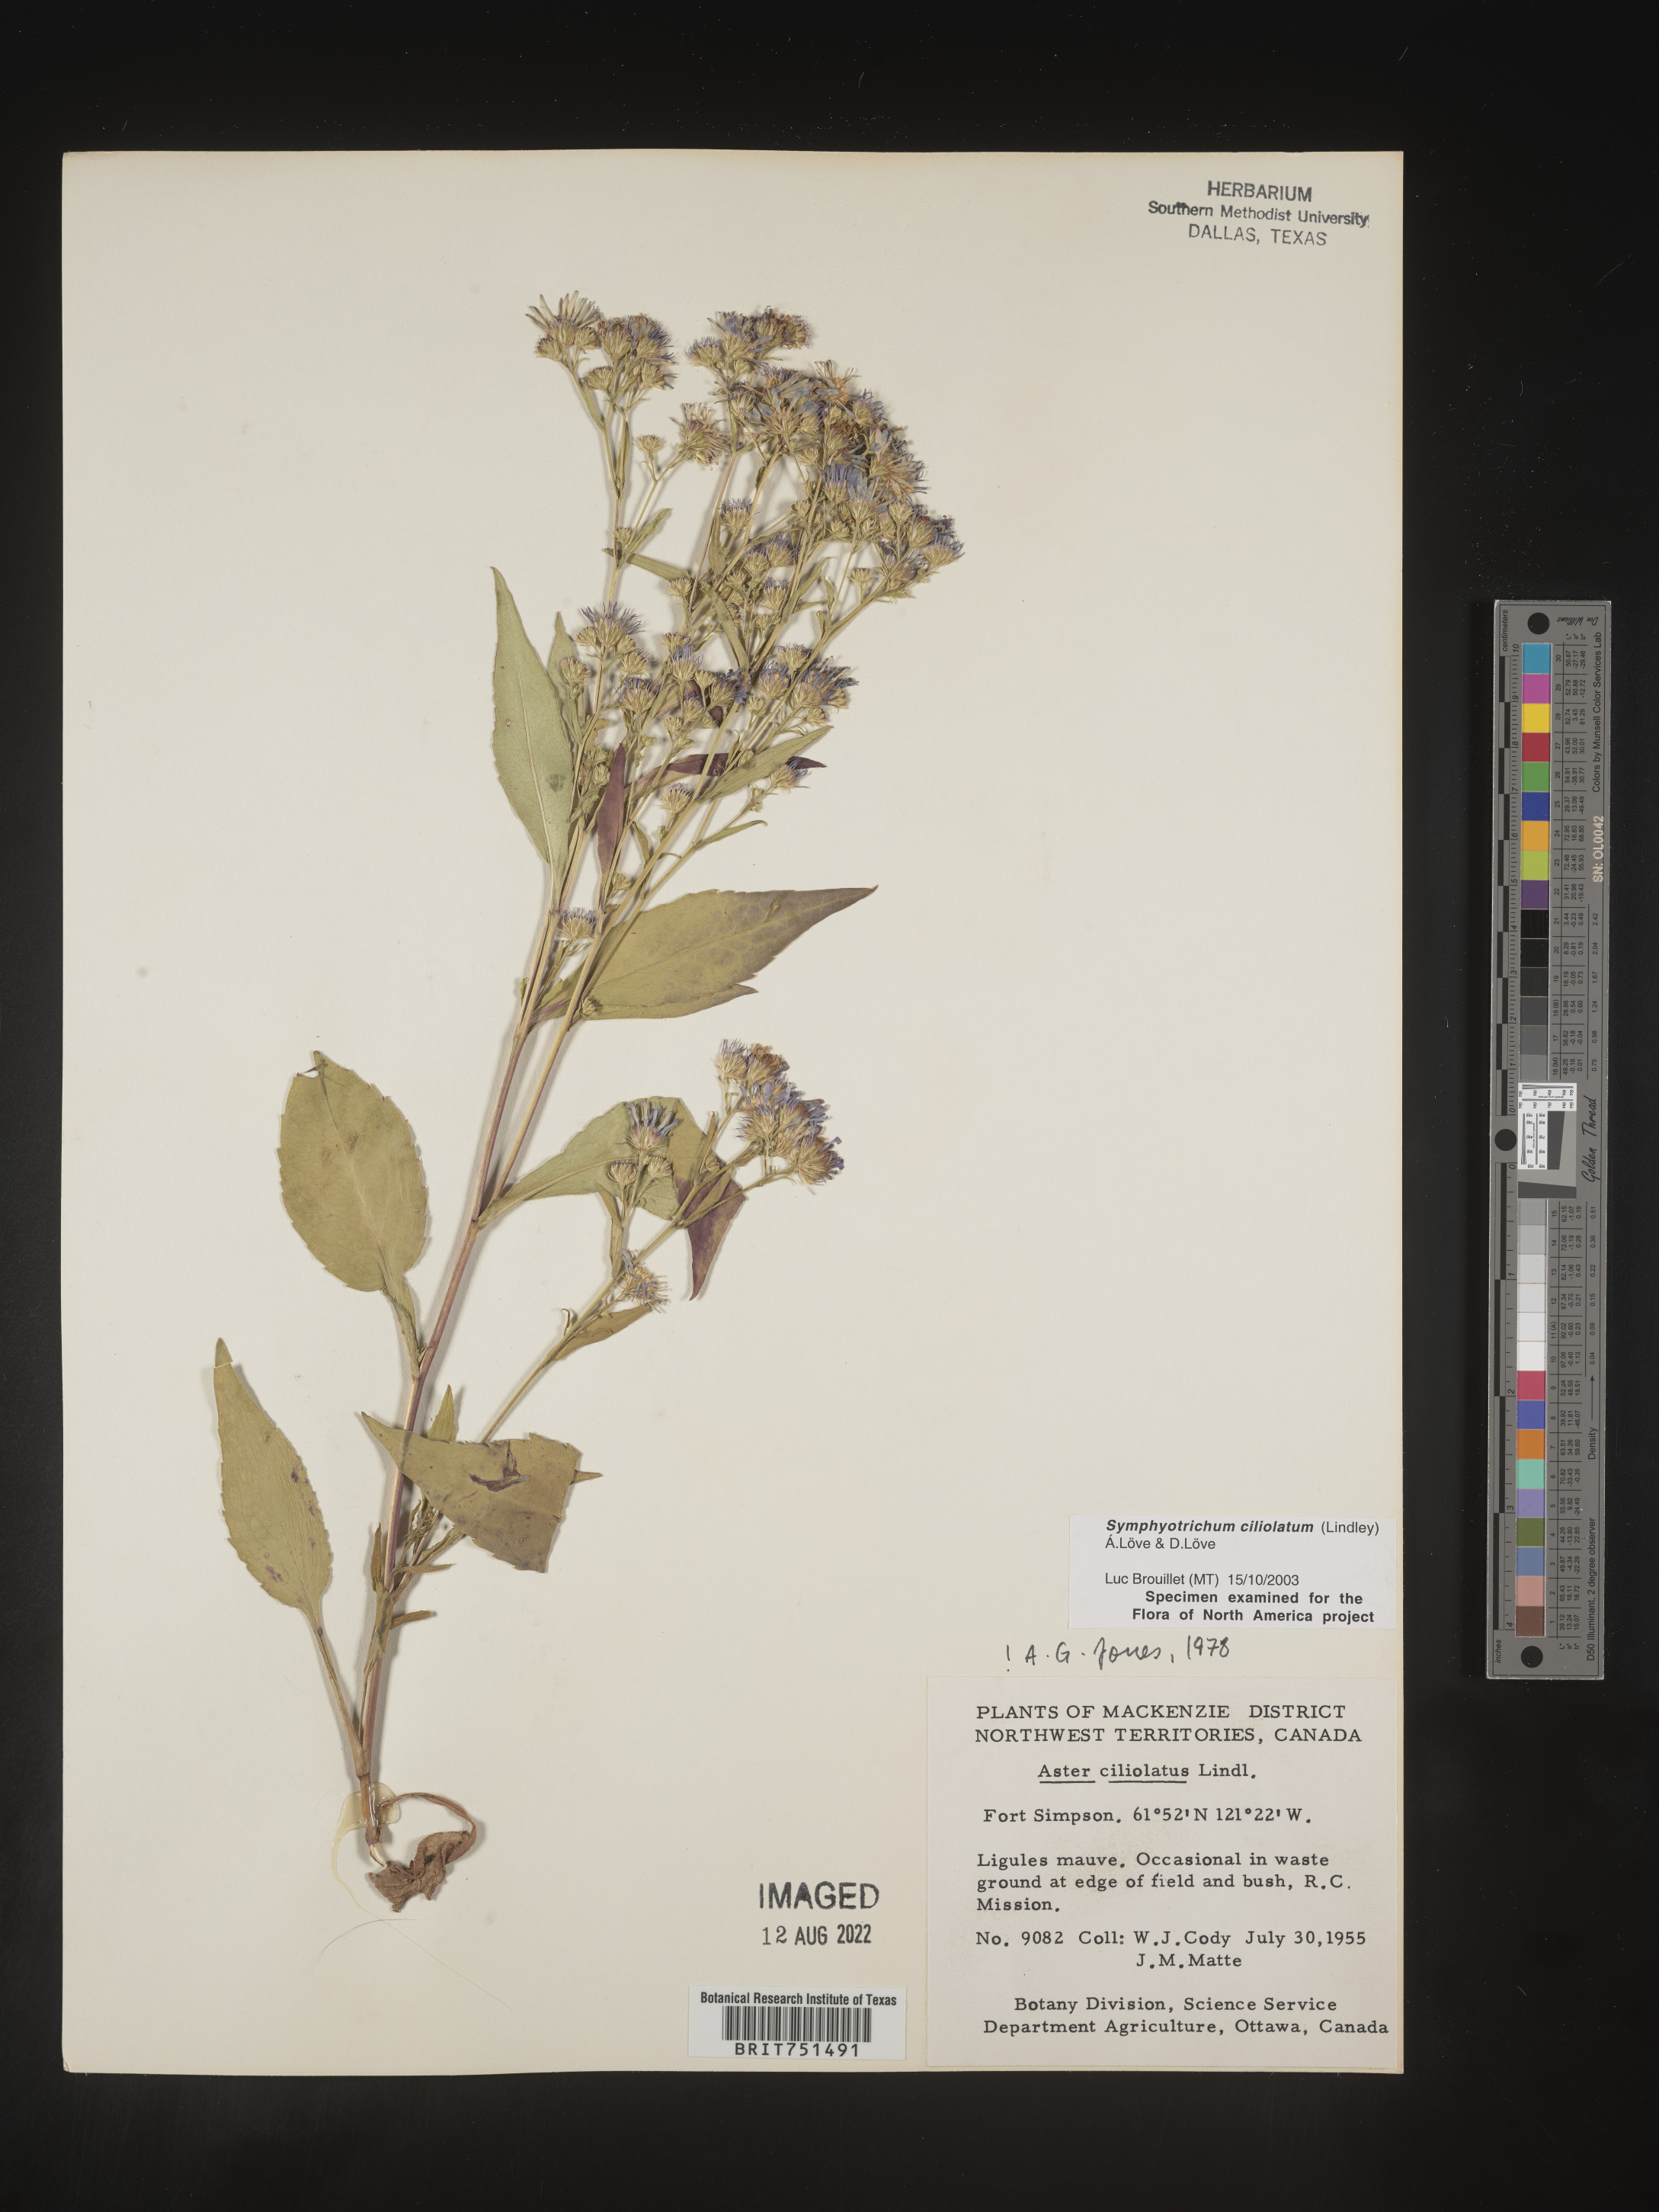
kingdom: Plantae
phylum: Tracheophyta
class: Magnoliopsida
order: Asterales
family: Asteraceae
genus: Symphyotrichum
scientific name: Symphyotrichum ciliolatum
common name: Fringed blue aster
